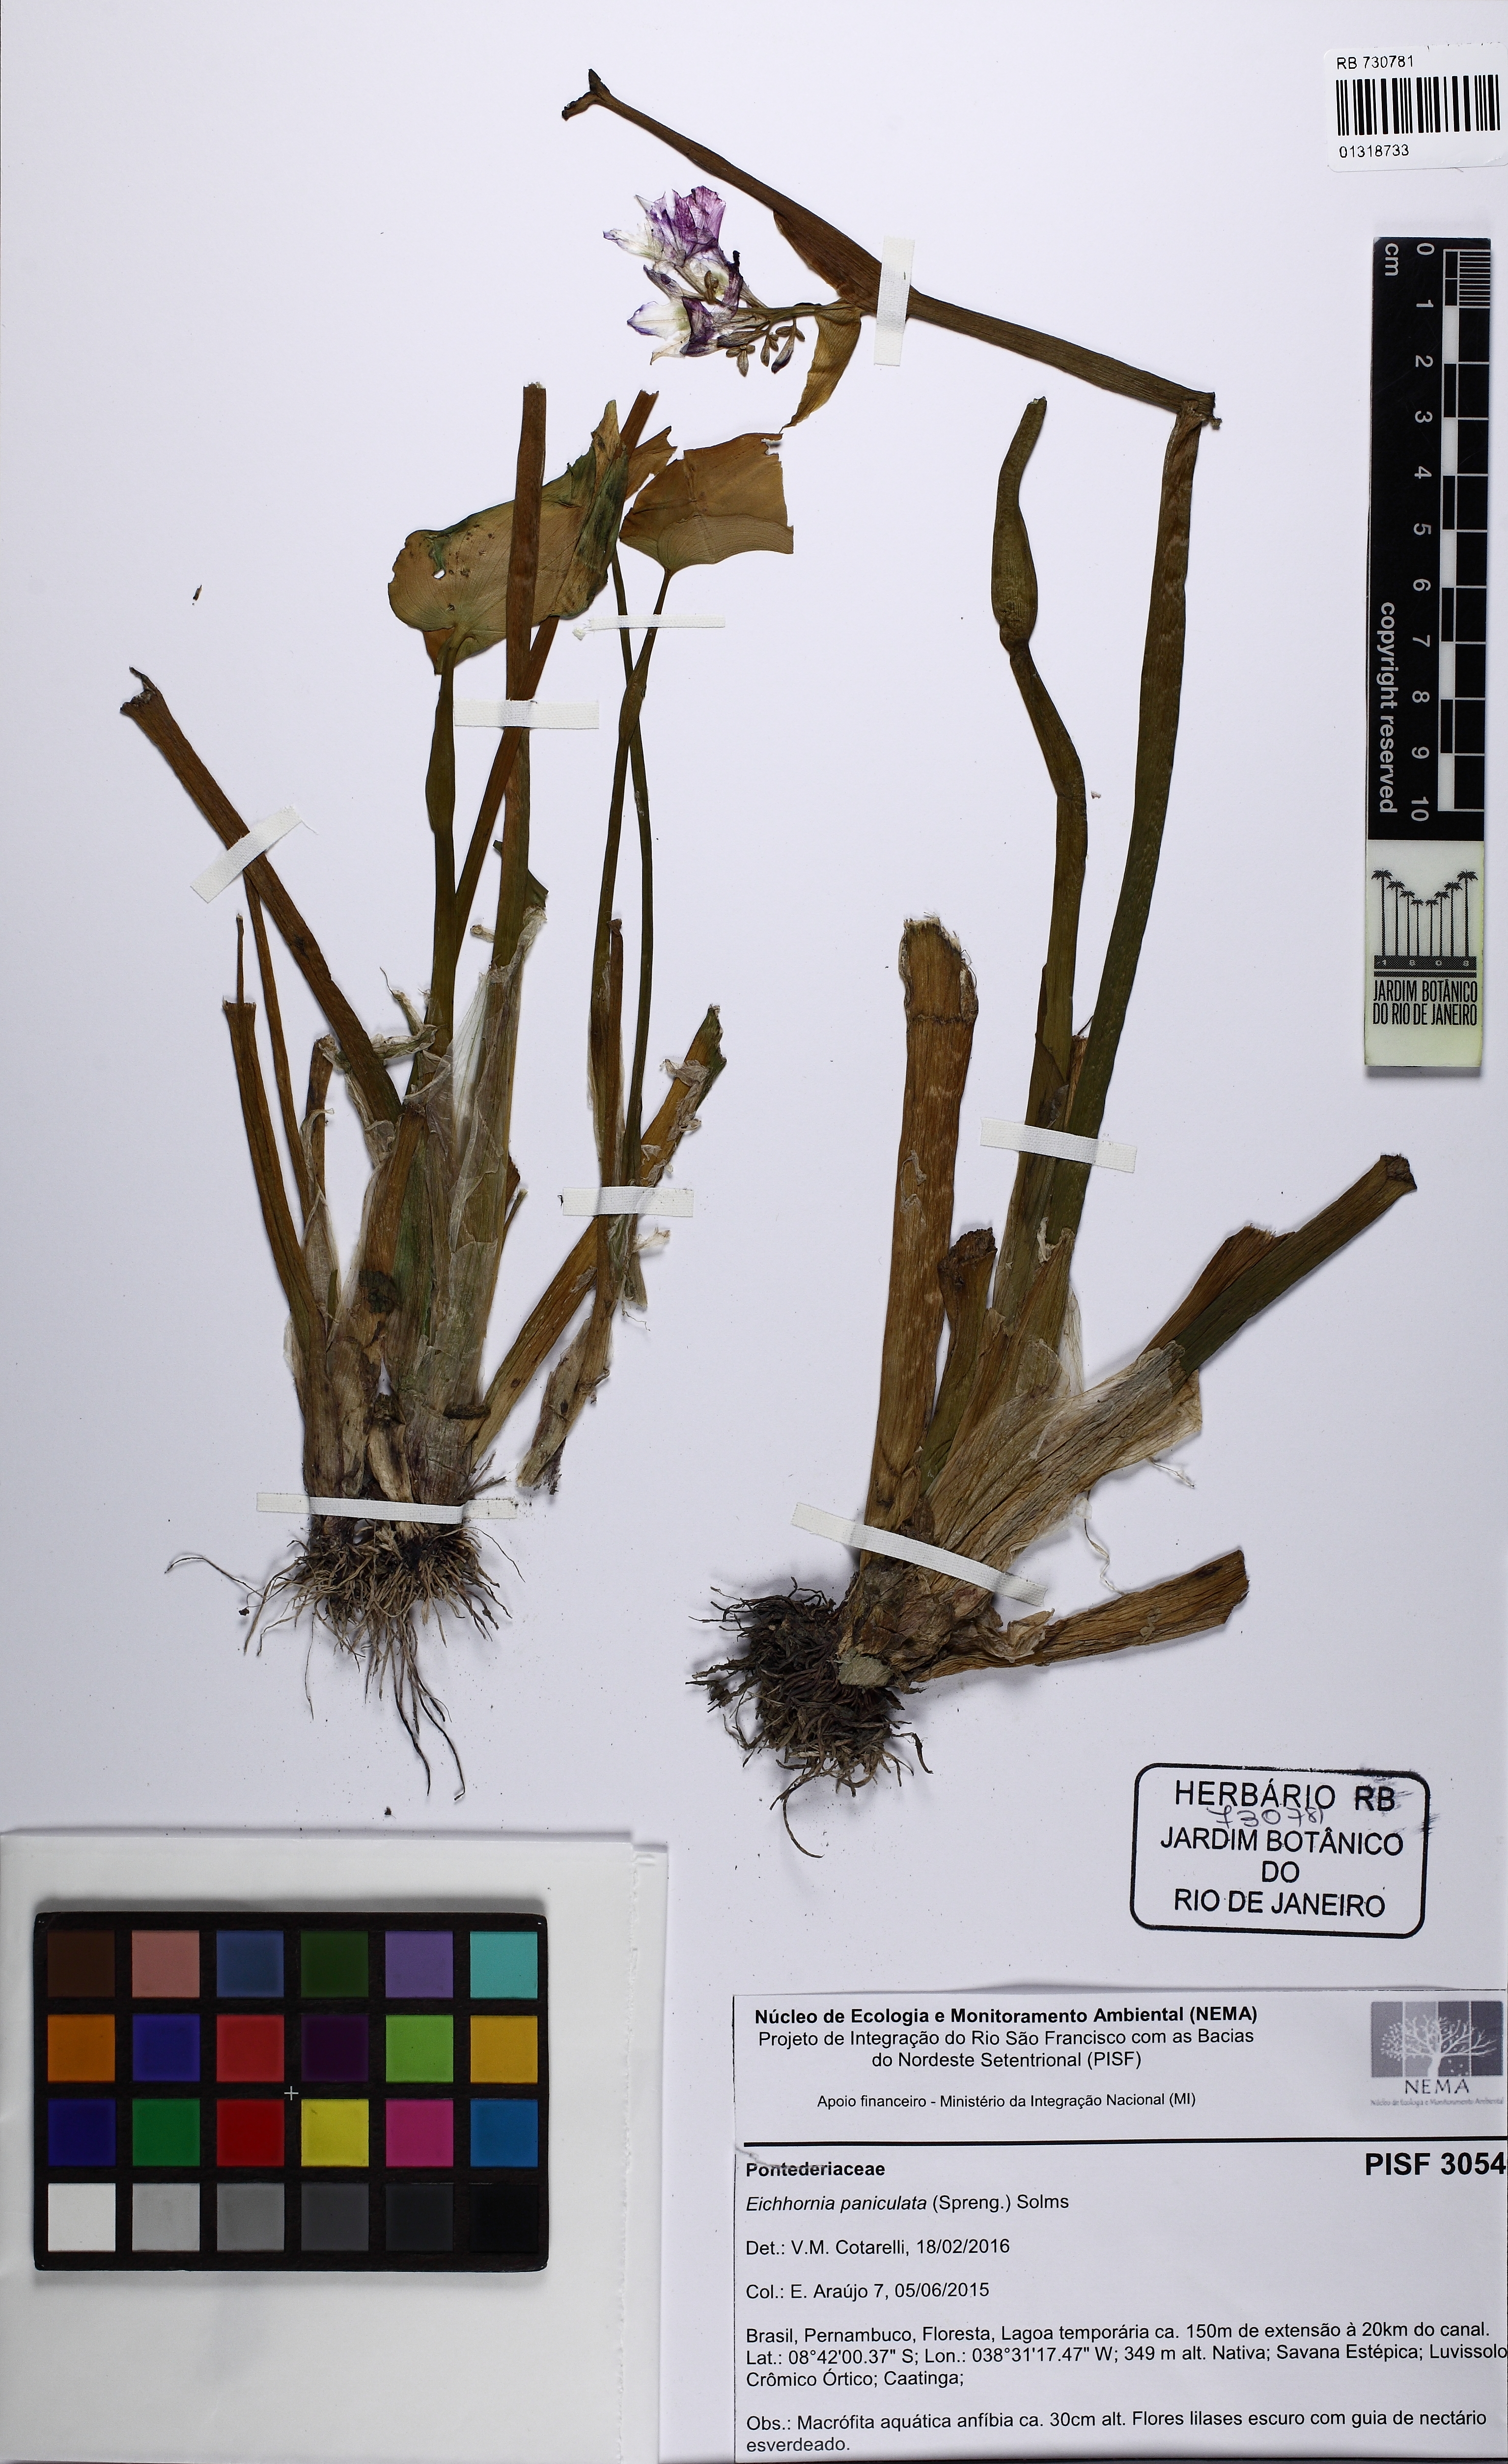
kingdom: Plantae
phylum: Tracheophyta
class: Liliopsida
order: Commelinales
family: Pontederiaceae
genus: Pontederia
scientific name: Pontederia paniculata
